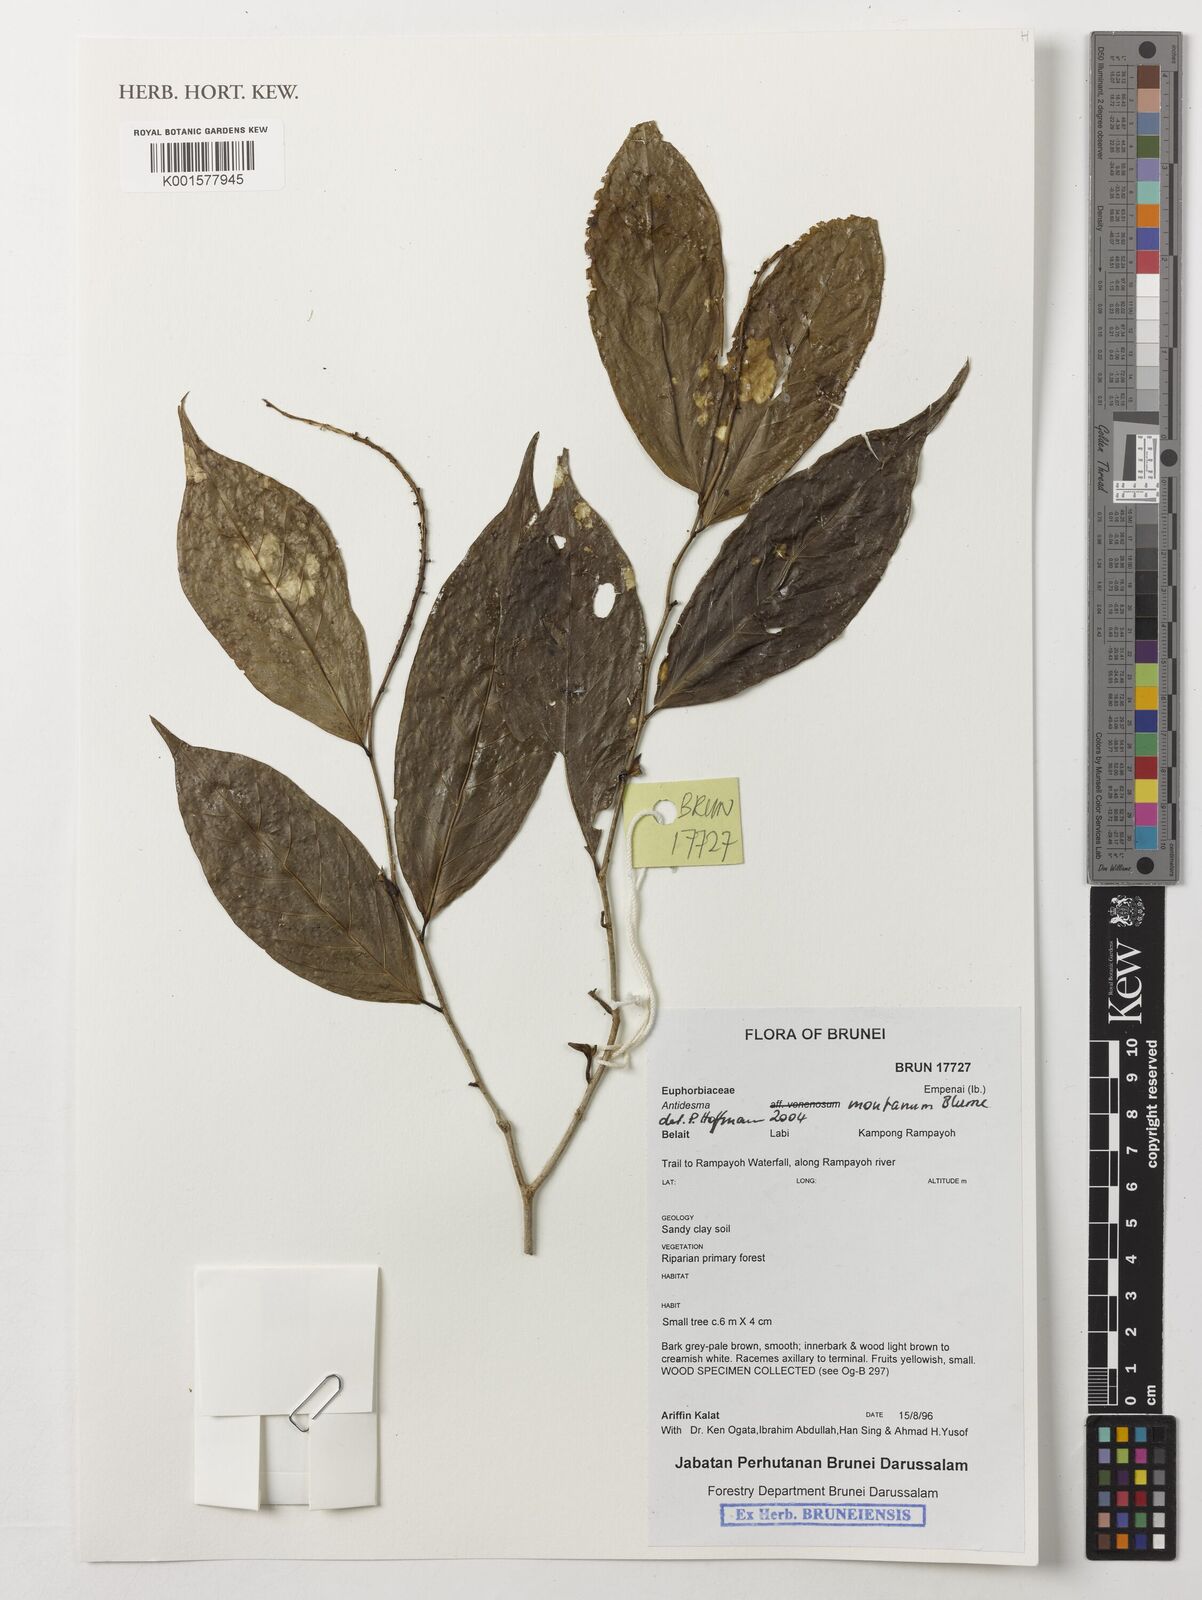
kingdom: Plantae
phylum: Tracheophyta
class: Magnoliopsida
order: Malpighiales
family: Phyllanthaceae
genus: Antidesma
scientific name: Antidesma montanum
